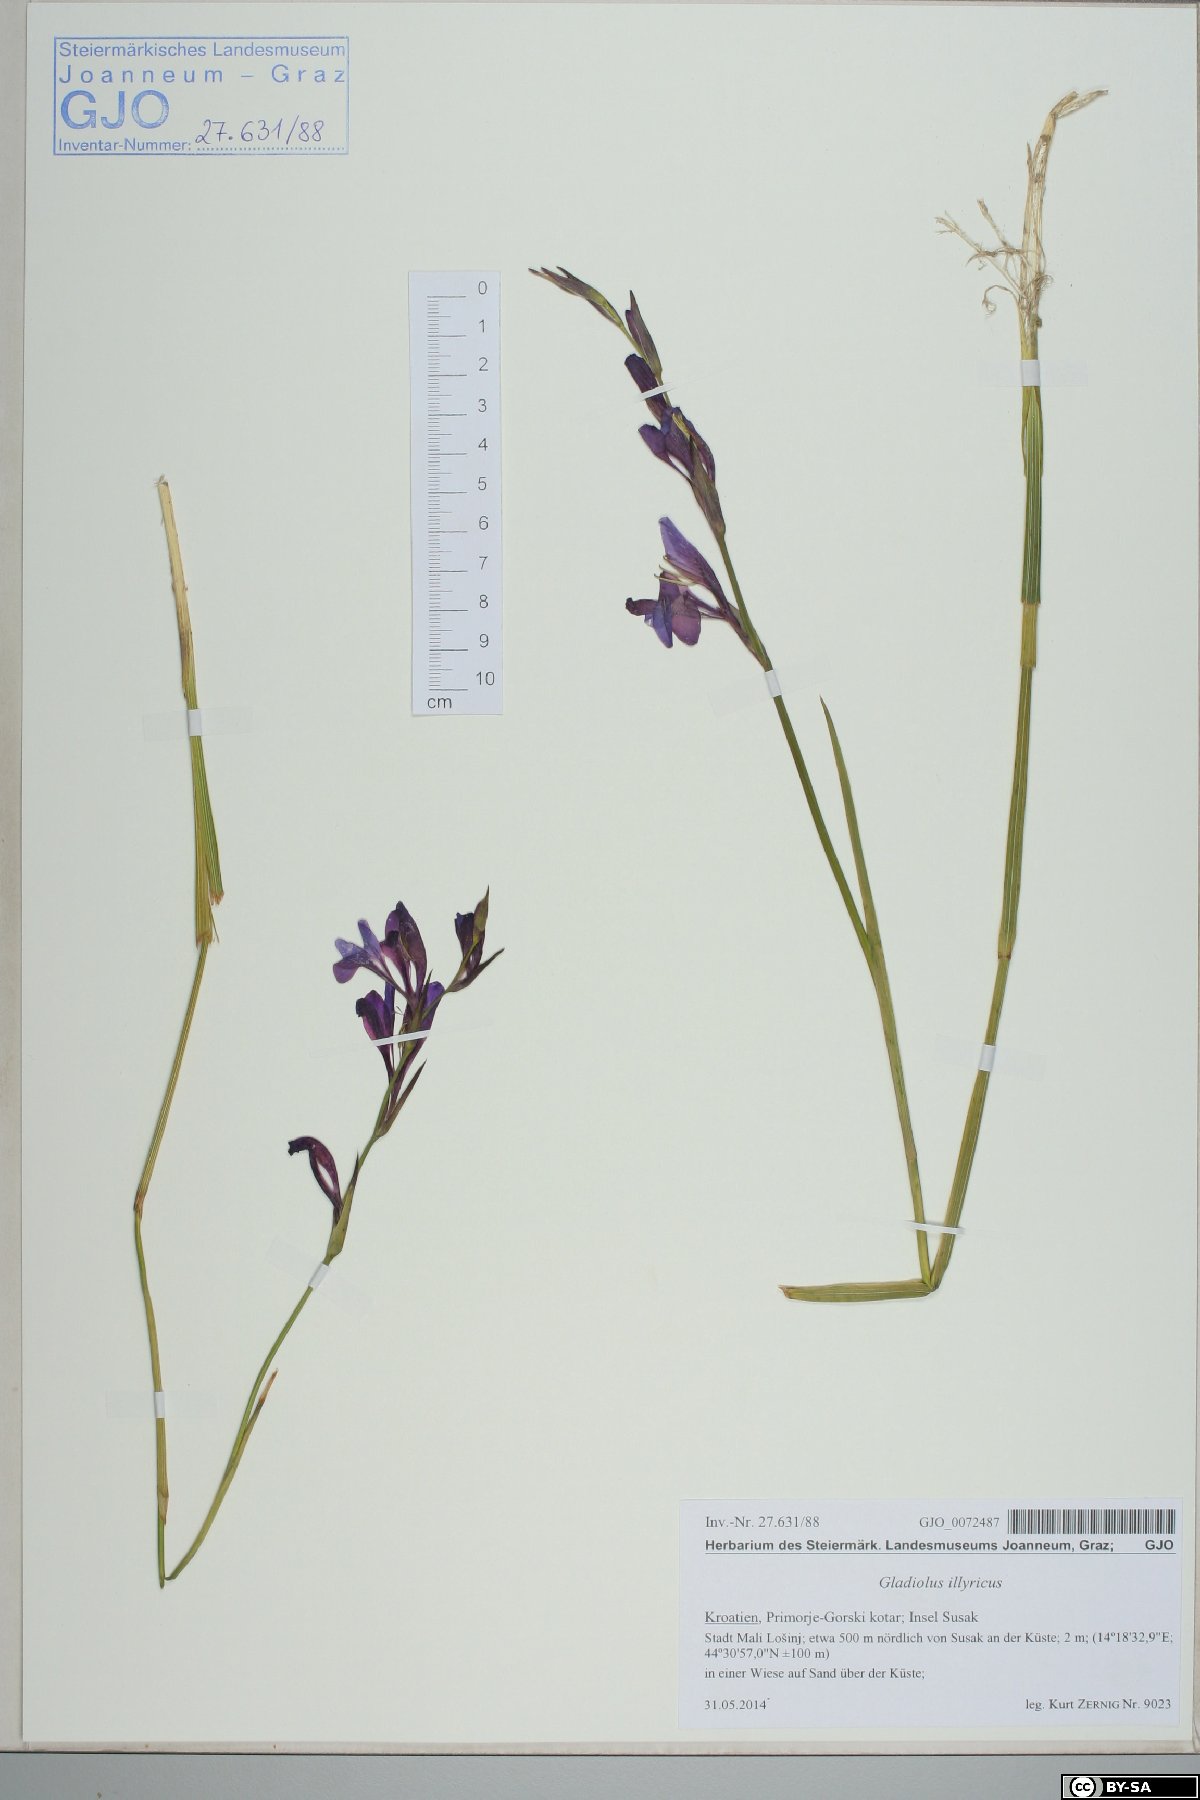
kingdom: Plantae
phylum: Tracheophyta
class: Liliopsida
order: Asparagales
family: Iridaceae
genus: Gladiolus
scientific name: Gladiolus illyricus
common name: Wild gladiolus
